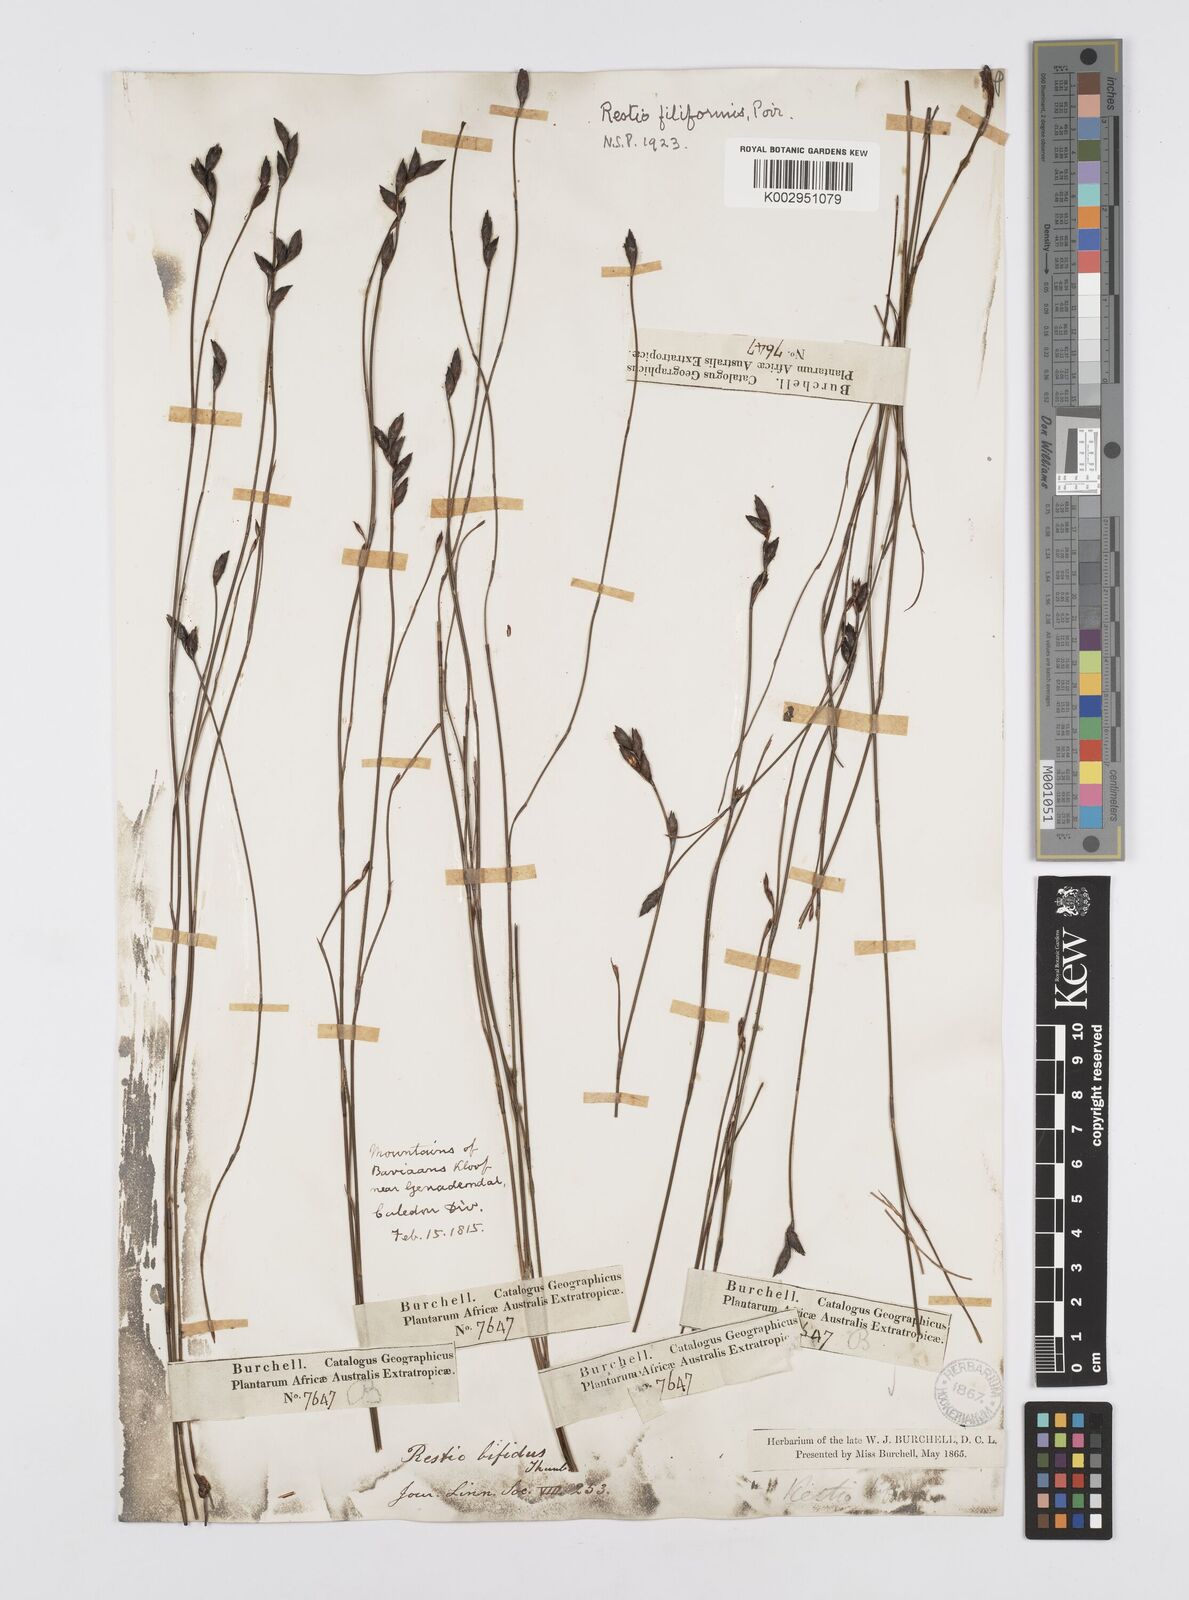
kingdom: Plantae
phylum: Tracheophyta
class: Liliopsida
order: Poales
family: Restionaceae
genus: Restio
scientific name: Restio filiformis
